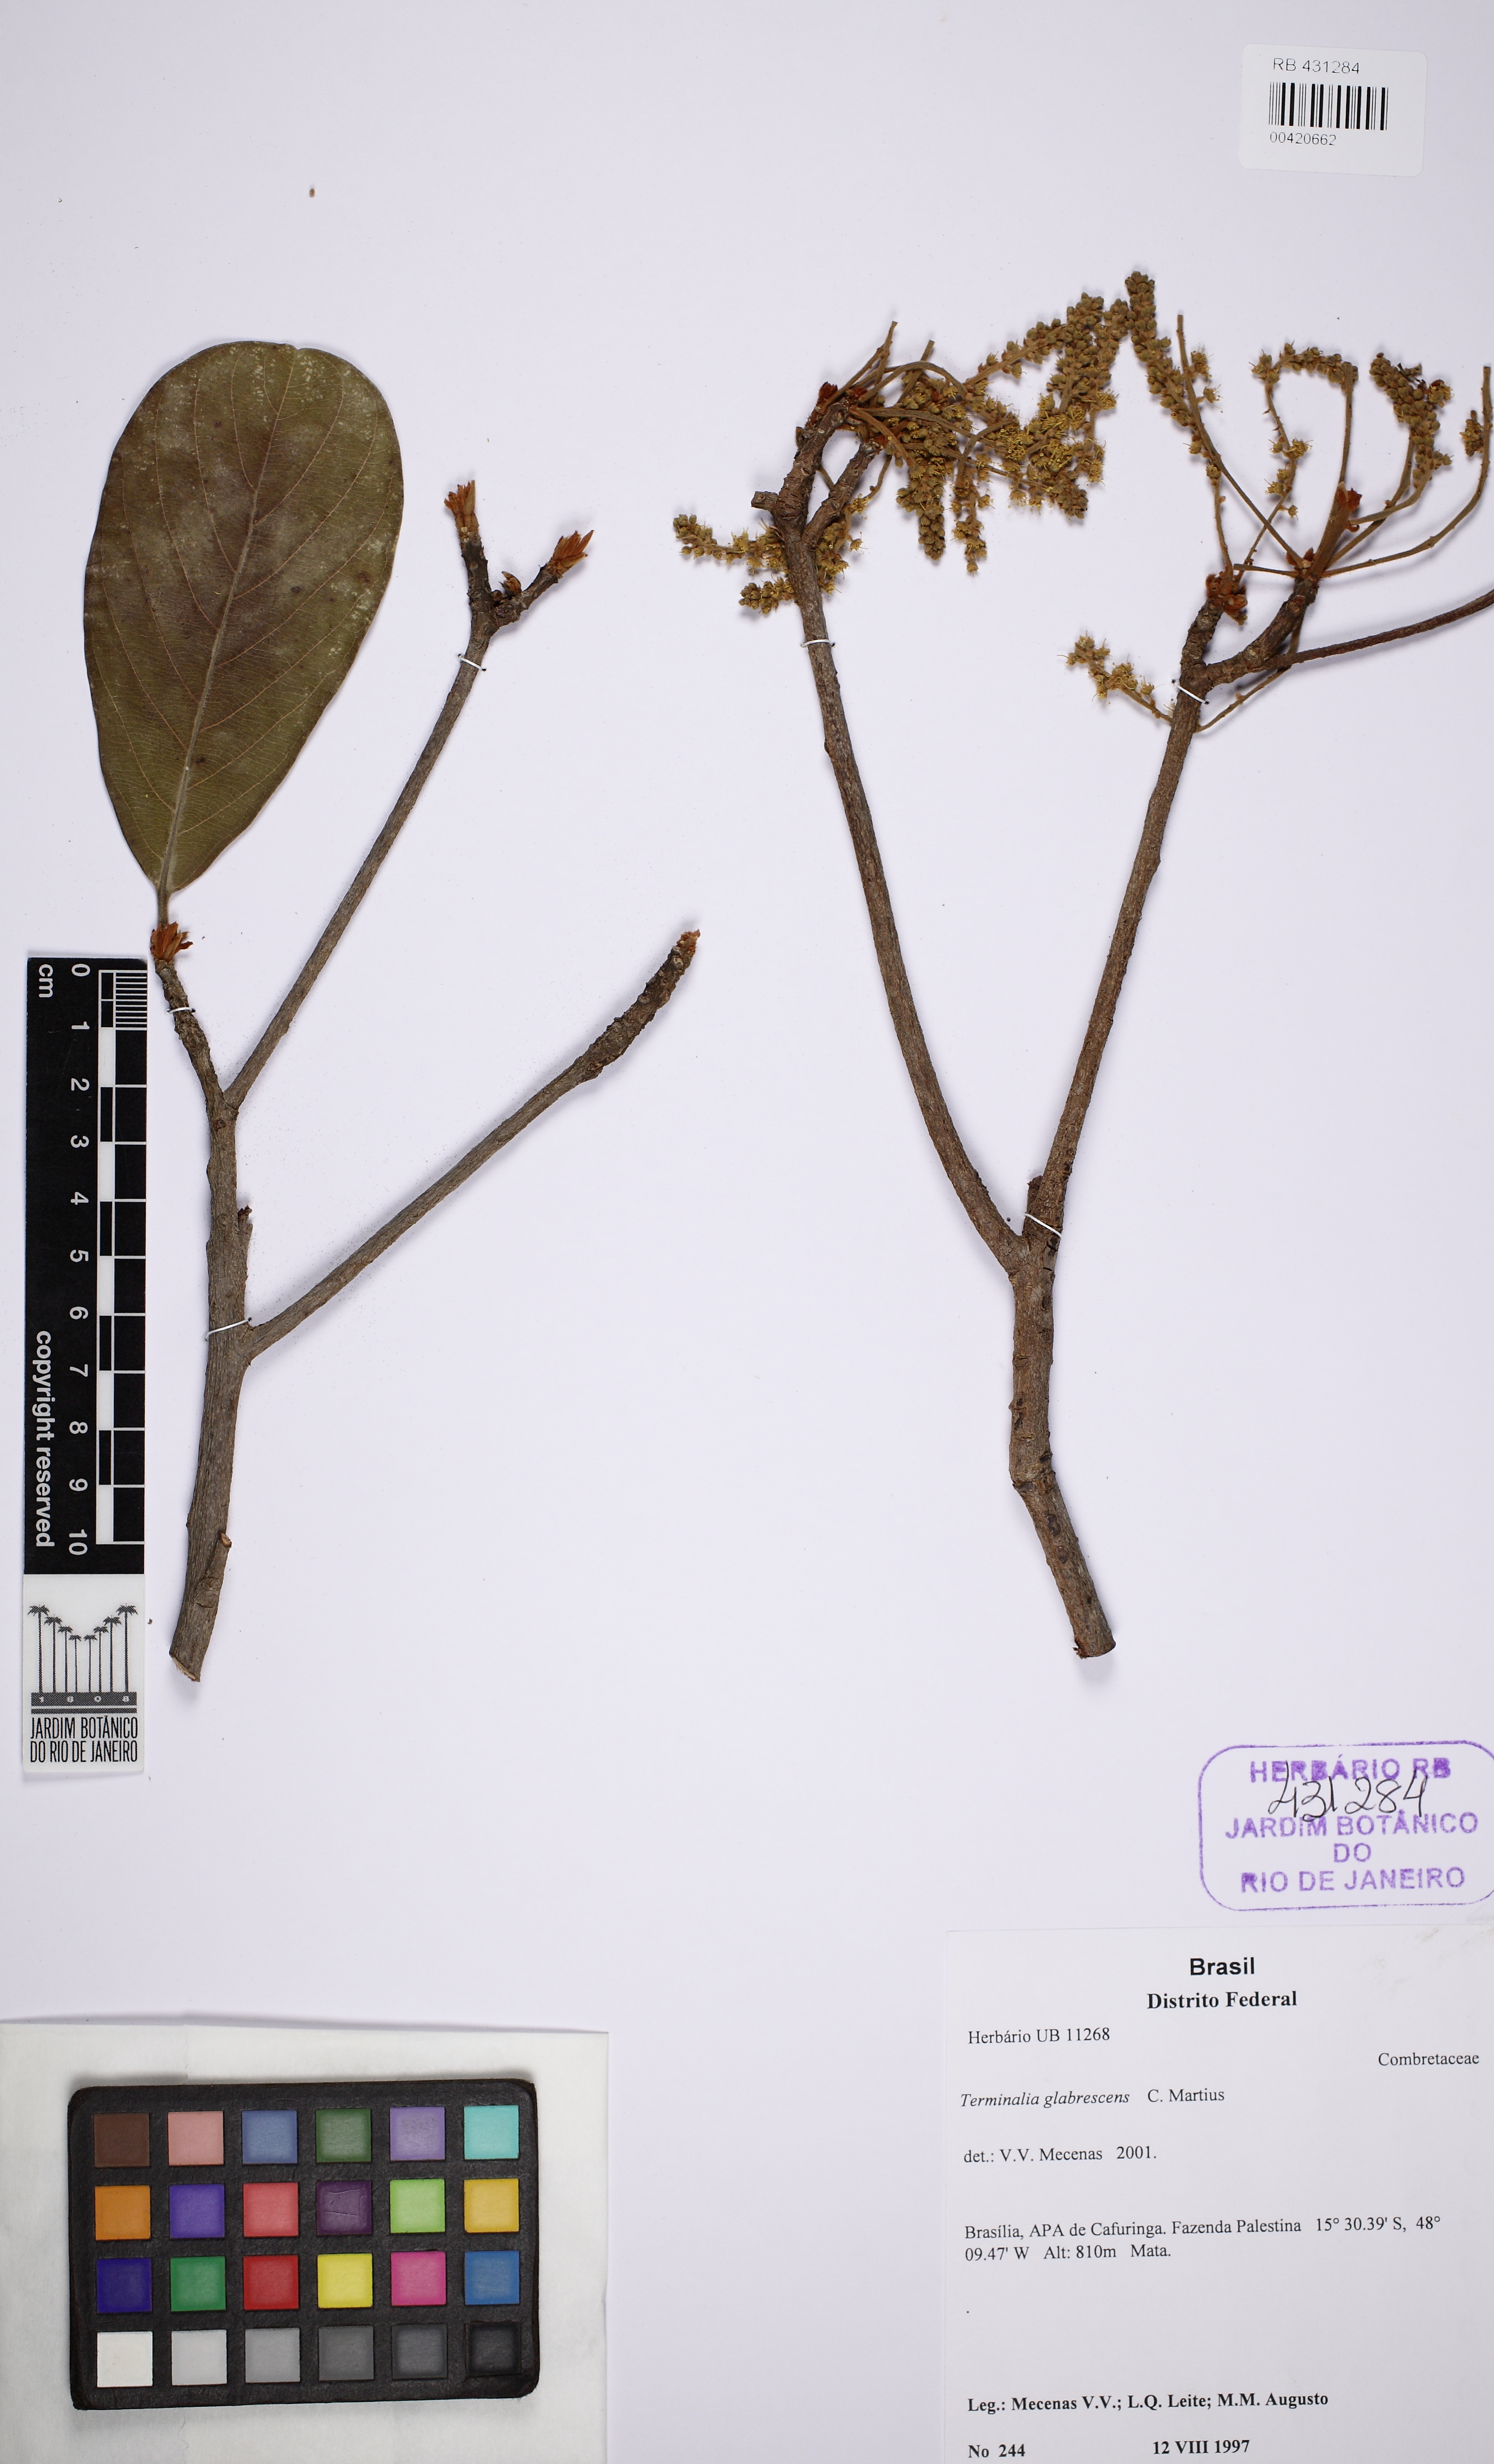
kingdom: Plantae
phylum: Tracheophyta
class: Magnoliopsida
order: Myrtales
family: Combretaceae
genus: Terminalia
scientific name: Terminalia glabrescens
